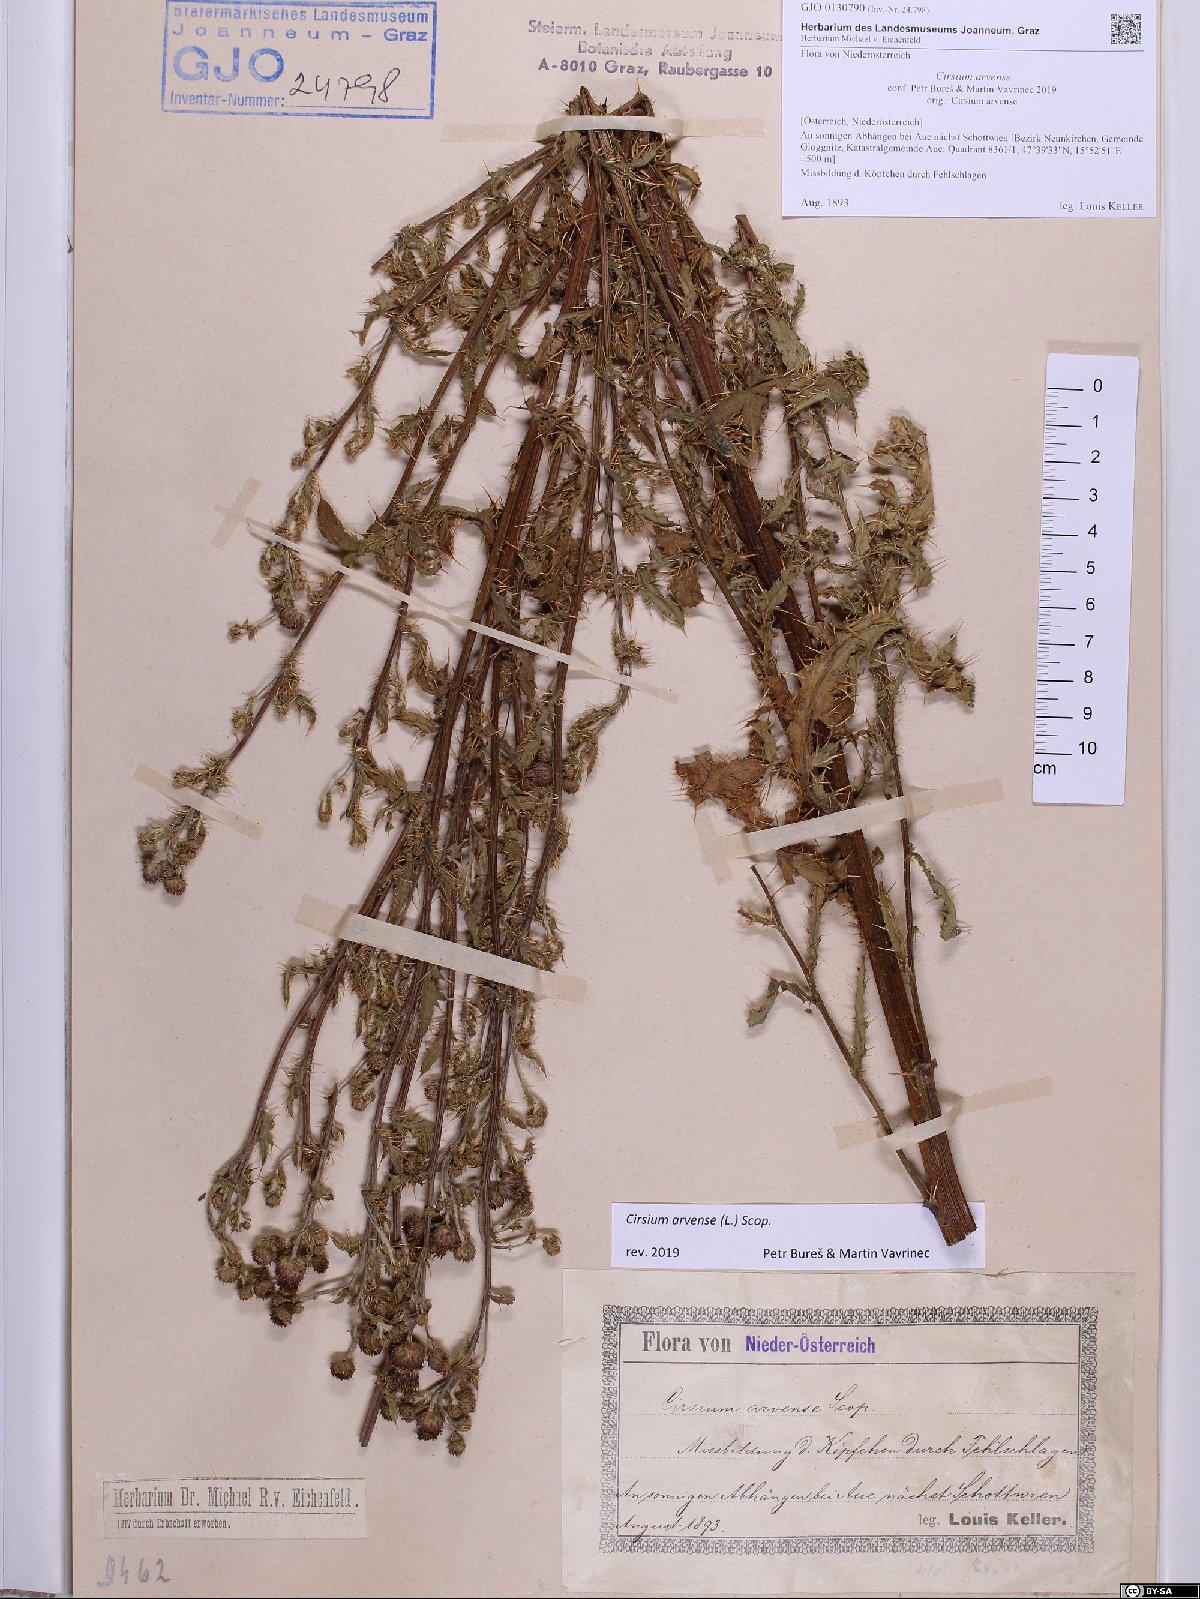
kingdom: Plantae
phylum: Tracheophyta
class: Magnoliopsida
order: Asterales
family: Asteraceae
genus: Cirsium
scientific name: Cirsium arvense
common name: Creeping thistle
